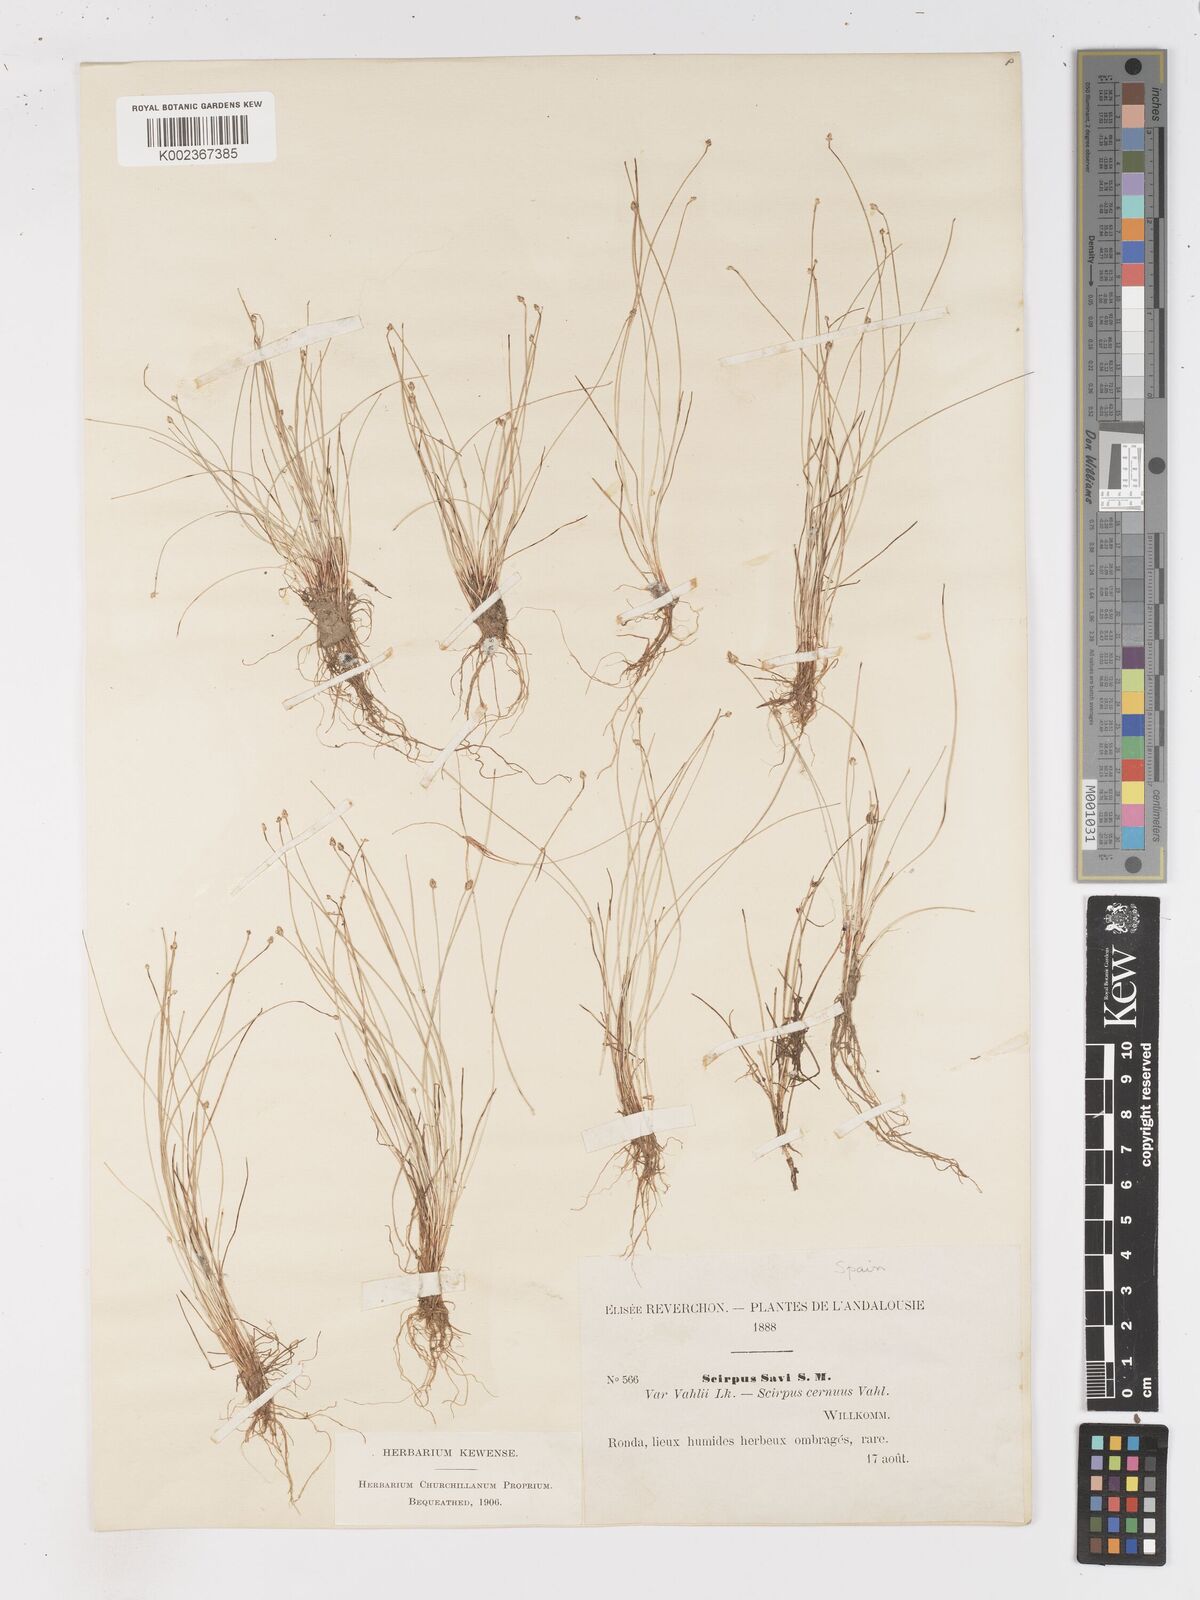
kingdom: Plantae
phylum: Tracheophyta
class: Liliopsida
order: Poales
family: Cyperaceae
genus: Isolepis
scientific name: Isolepis cernua
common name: Slender club-rush
